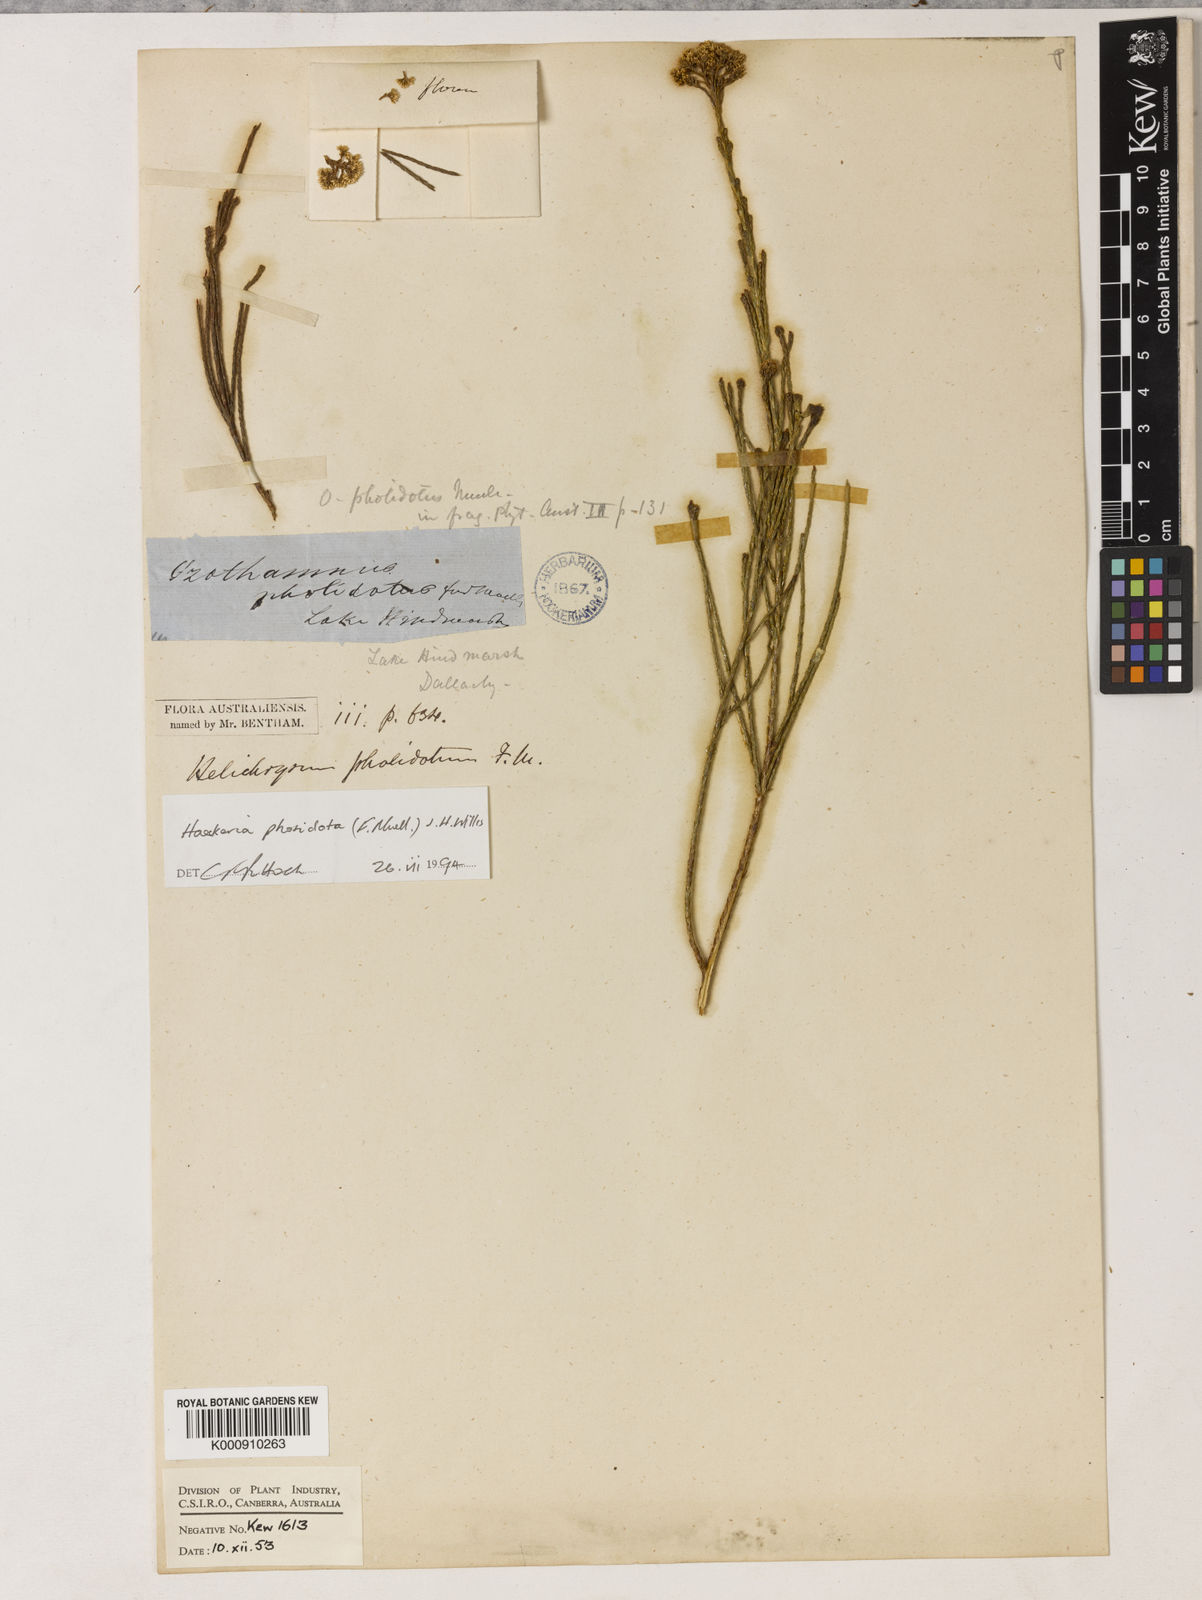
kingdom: Plantae
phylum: Tracheophyta
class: Magnoliopsida
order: Asterales
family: Asteraceae
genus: Haeckeria
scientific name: Haeckeria pholidota
